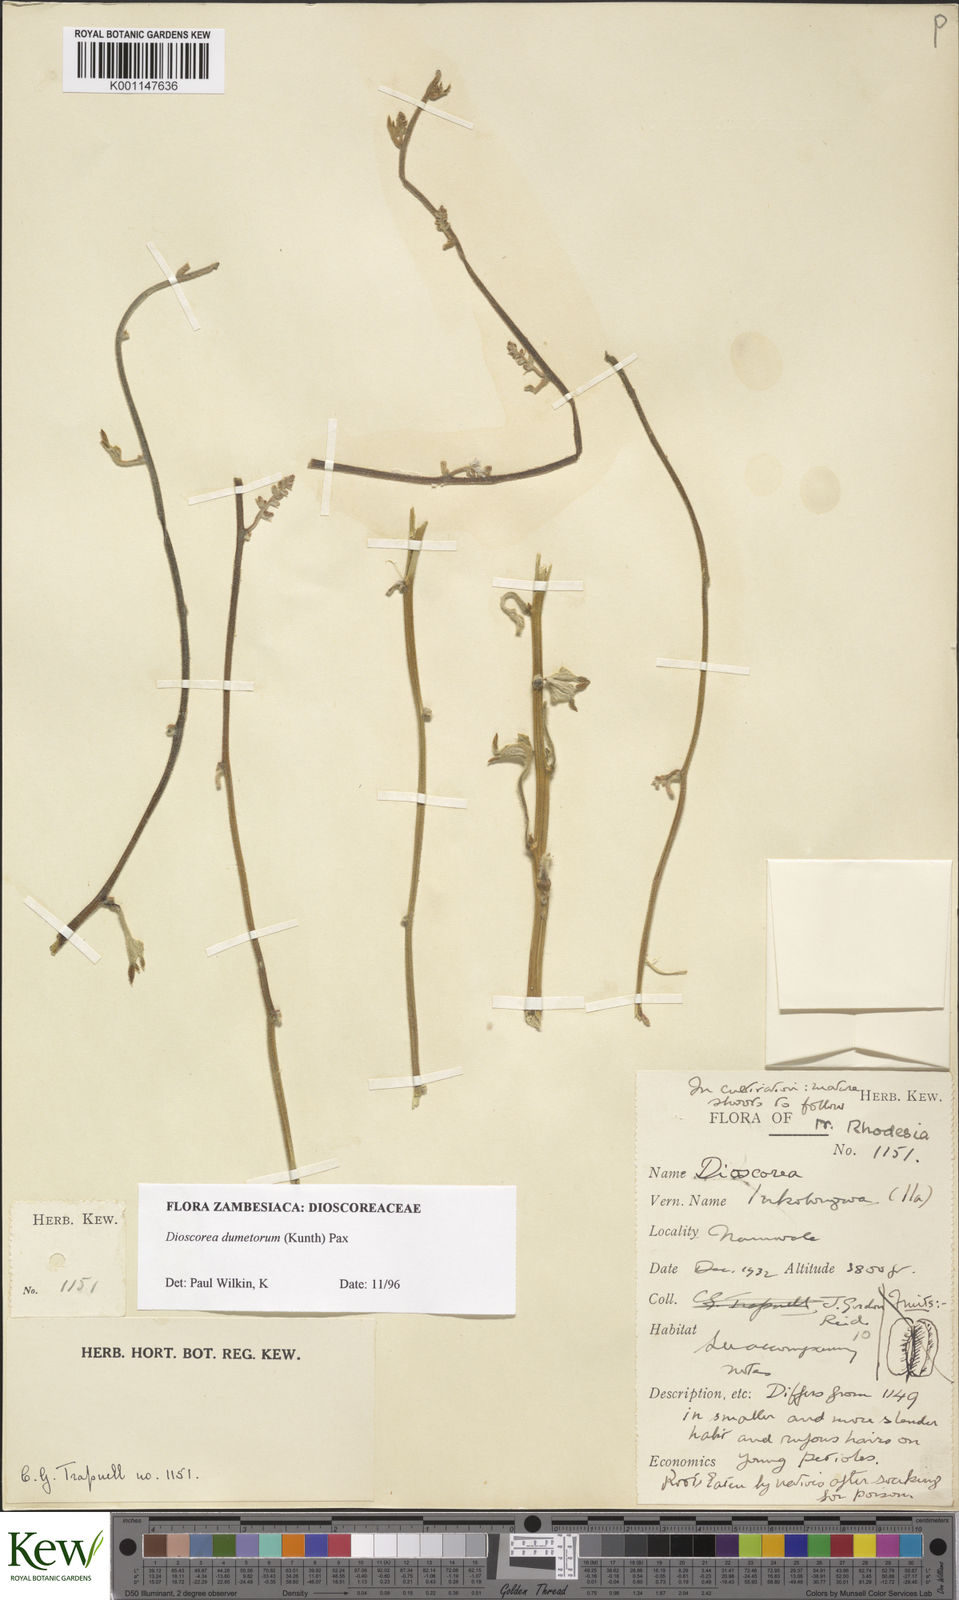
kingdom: Plantae
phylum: Tracheophyta
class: Liliopsida
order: Dioscoreales
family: Dioscoreaceae
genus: Dioscorea
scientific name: Dioscorea dumetorum
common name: African bitter yam
